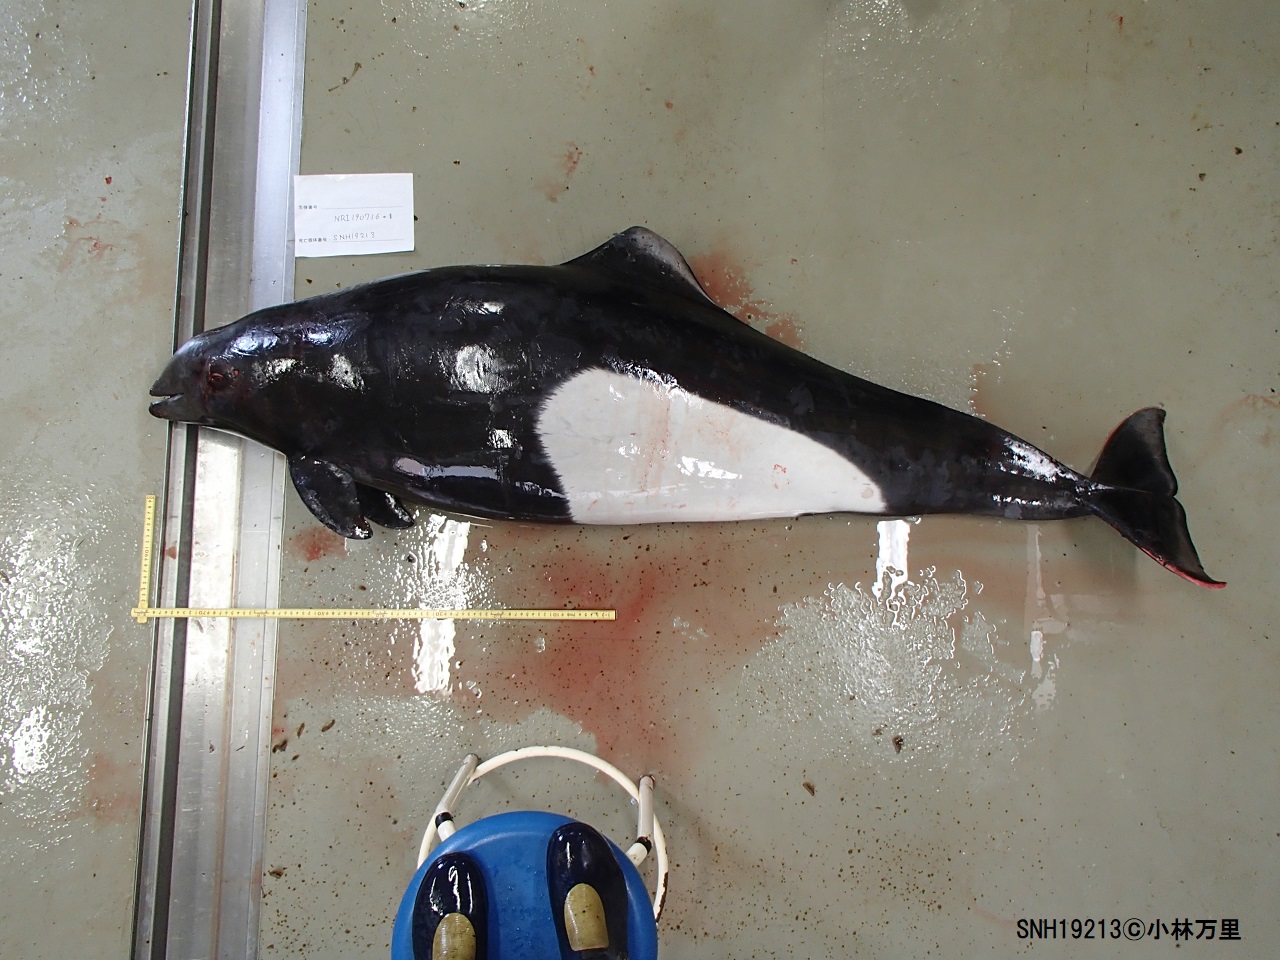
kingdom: Animalia
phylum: Chordata
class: Mammalia
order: Cetacea
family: Phocoenidae
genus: Phocoenoides
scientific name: Phocoenoides dalli
